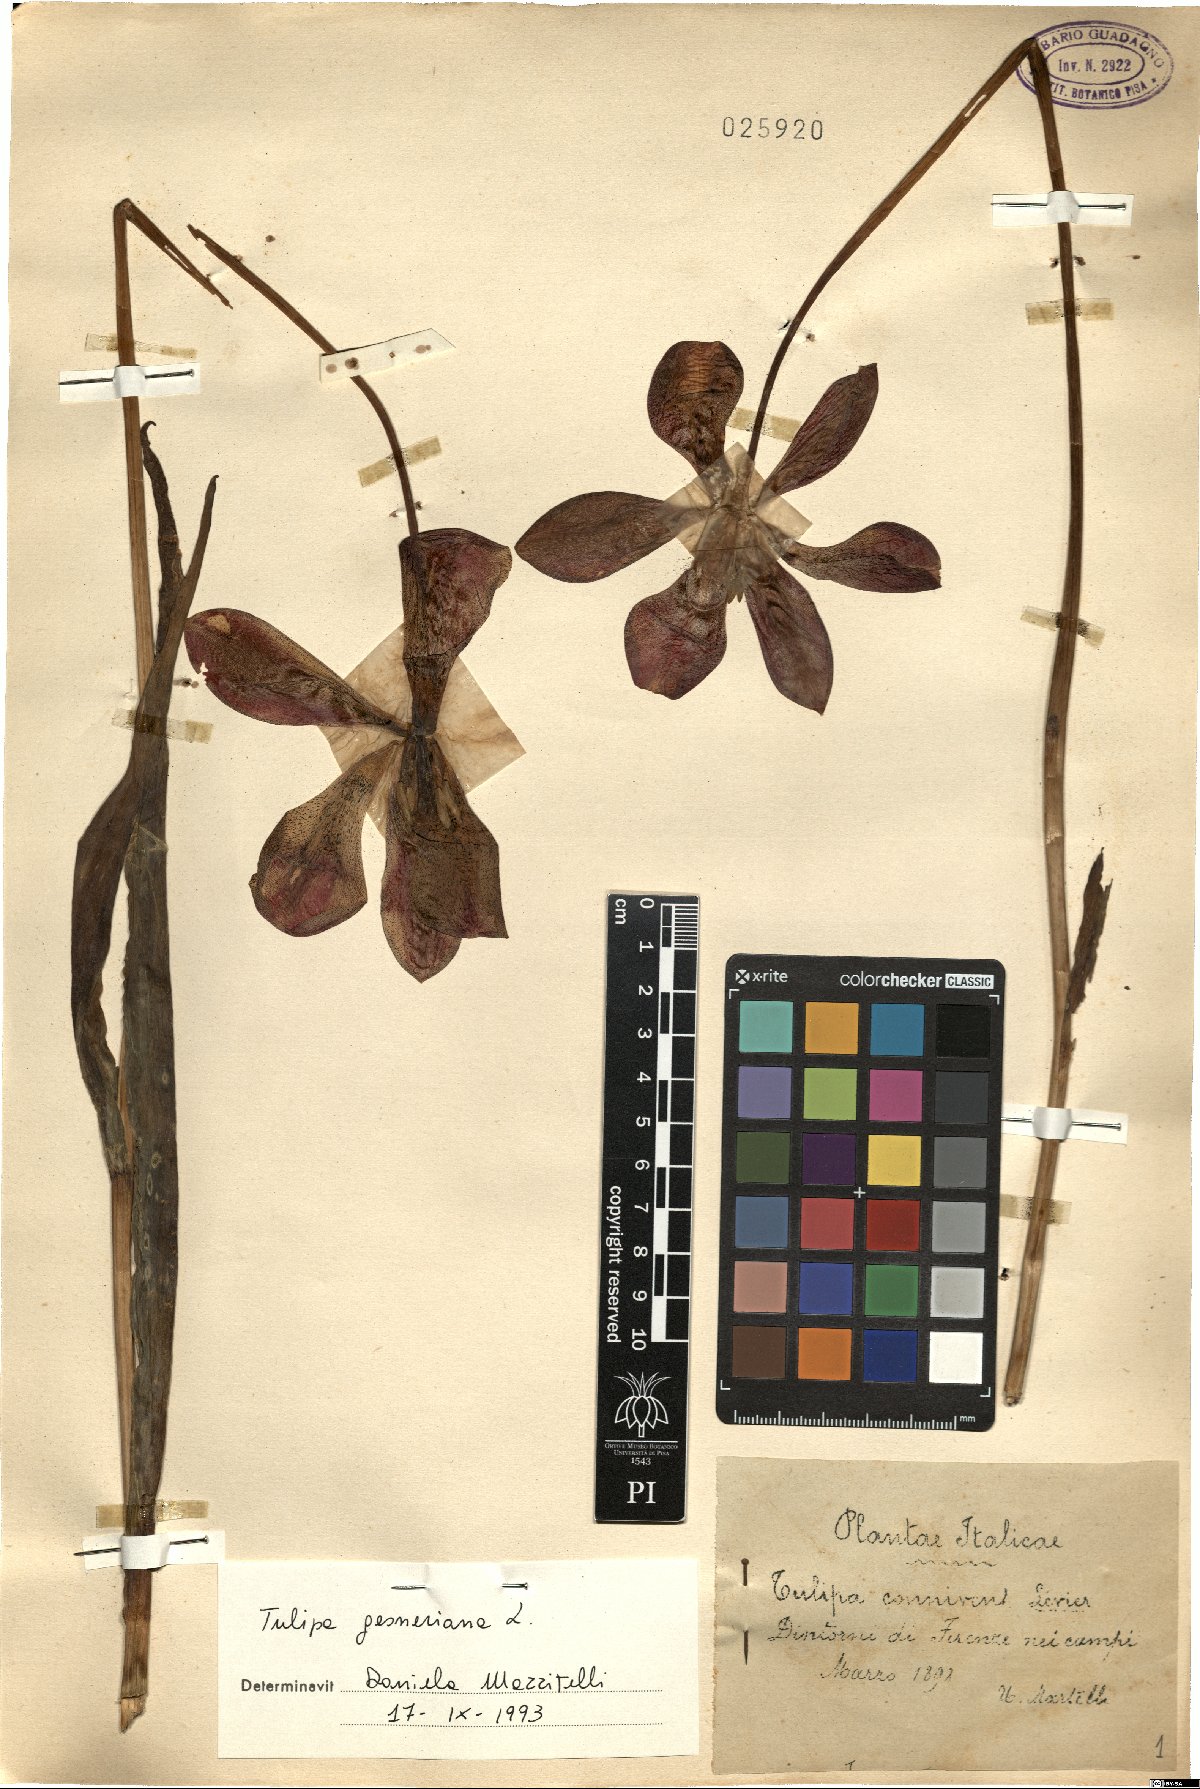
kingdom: Plantae
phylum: Tracheophyta
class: Liliopsida
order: Liliales
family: Liliaceae
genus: Tulipa
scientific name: Tulipa gesneriana
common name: Garden tulip
